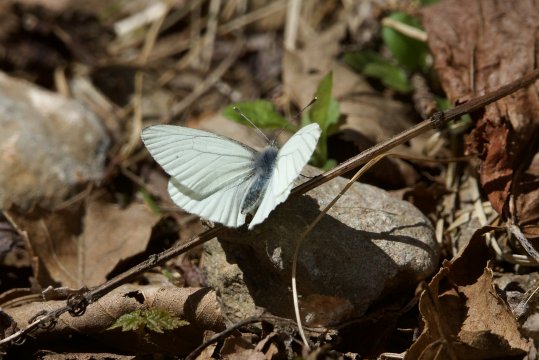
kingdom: Animalia
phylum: Arthropoda
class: Insecta
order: Lepidoptera
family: Pieridae
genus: Pieris
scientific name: Pieris oleracea
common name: Mustard White
